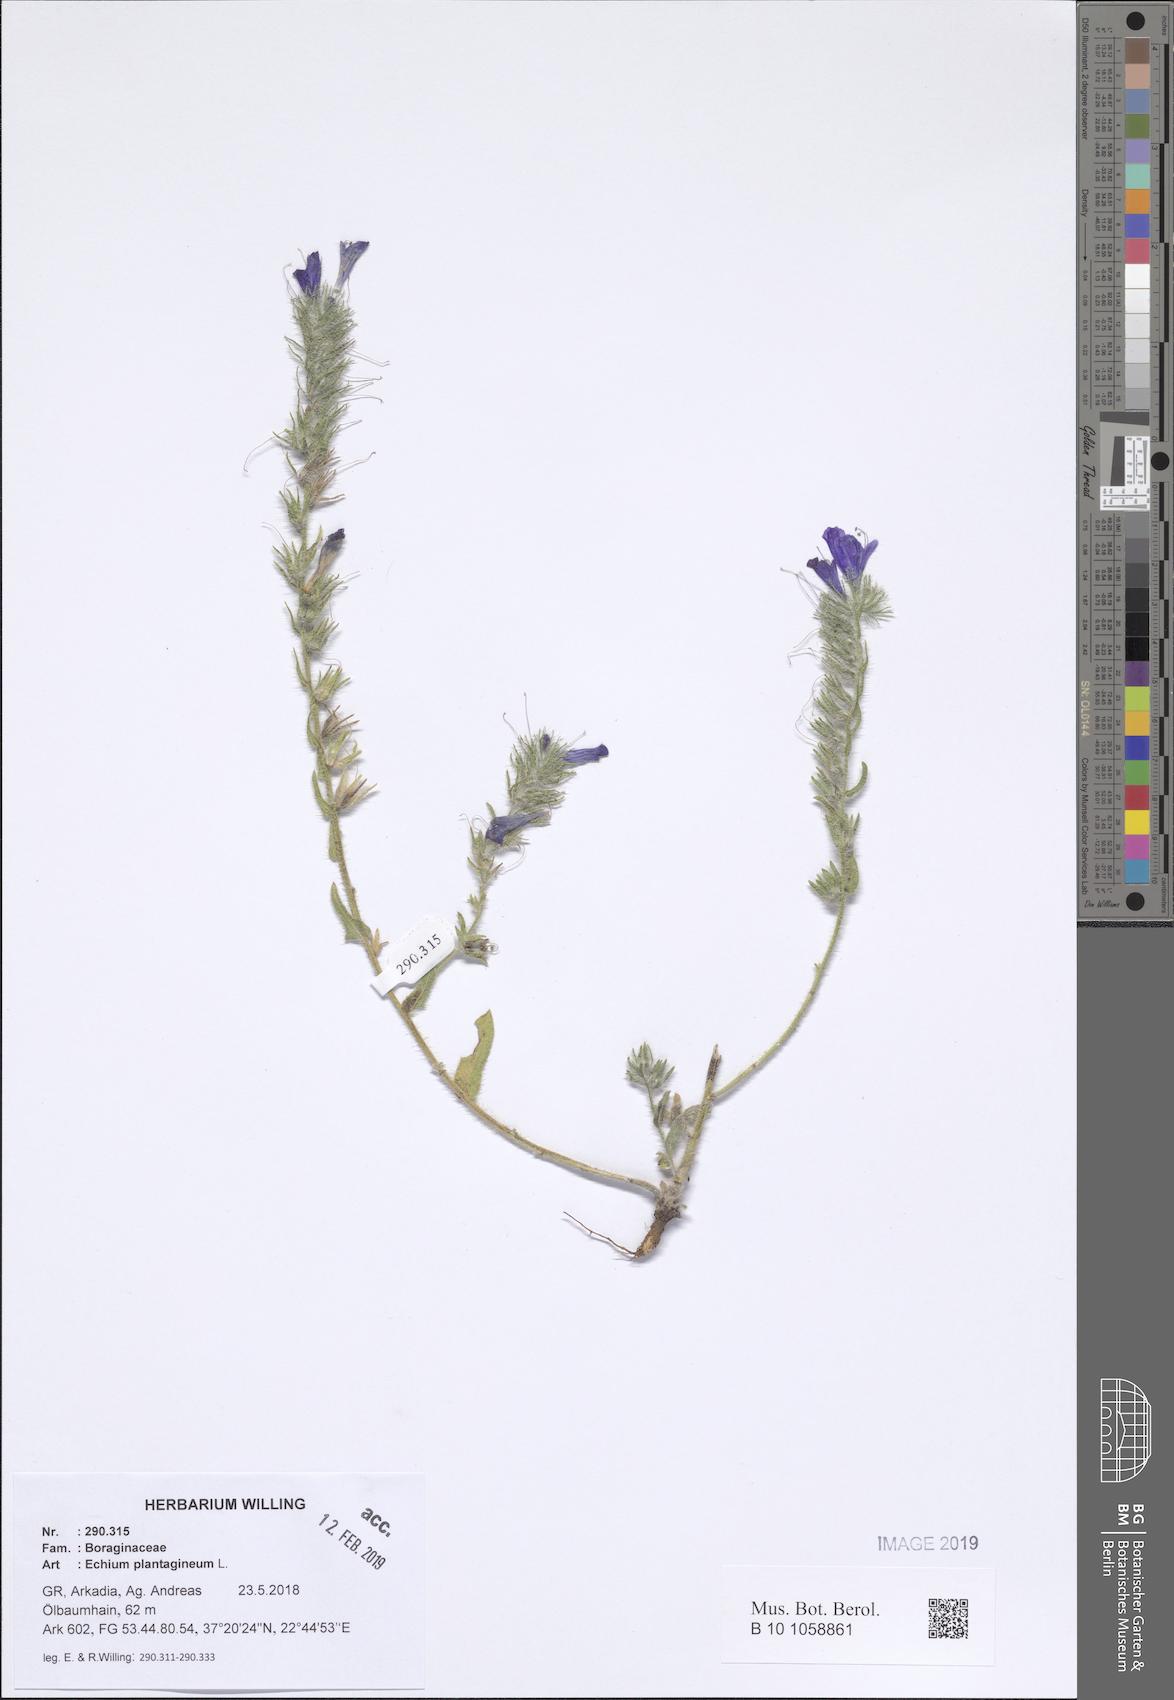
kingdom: Plantae
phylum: Tracheophyta
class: Magnoliopsida
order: Boraginales
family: Boraginaceae
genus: Echium
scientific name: Echium plantagineum
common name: Purple viper's-bugloss
